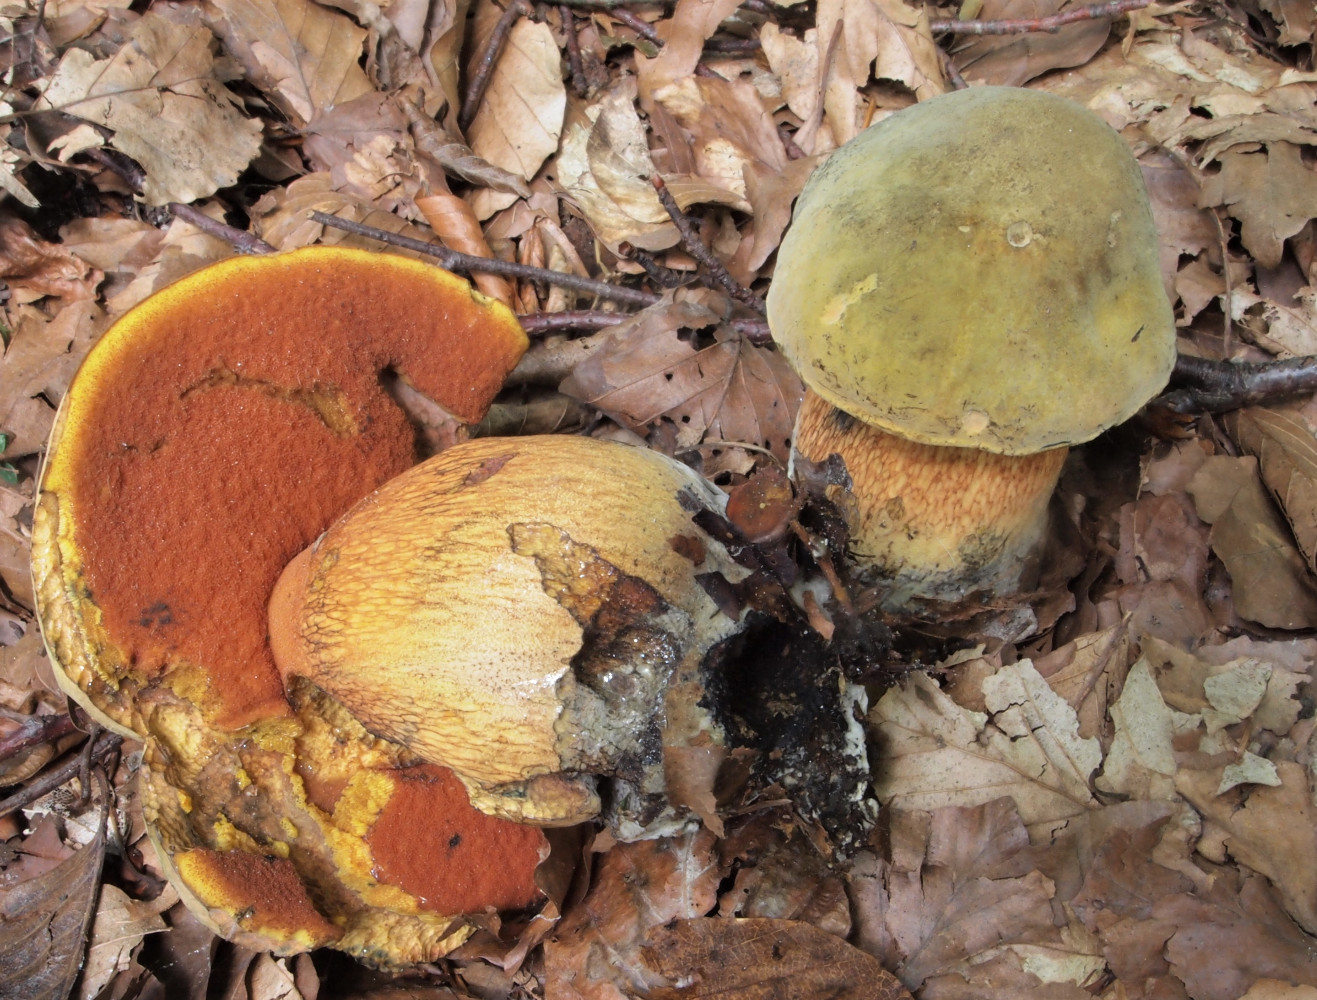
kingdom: Fungi
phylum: Basidiomycota
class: Agaricomycetes
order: Boletales
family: Boletaceae
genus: Suillellus
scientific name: Suillellus luridus
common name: netstokket indigorørhat
